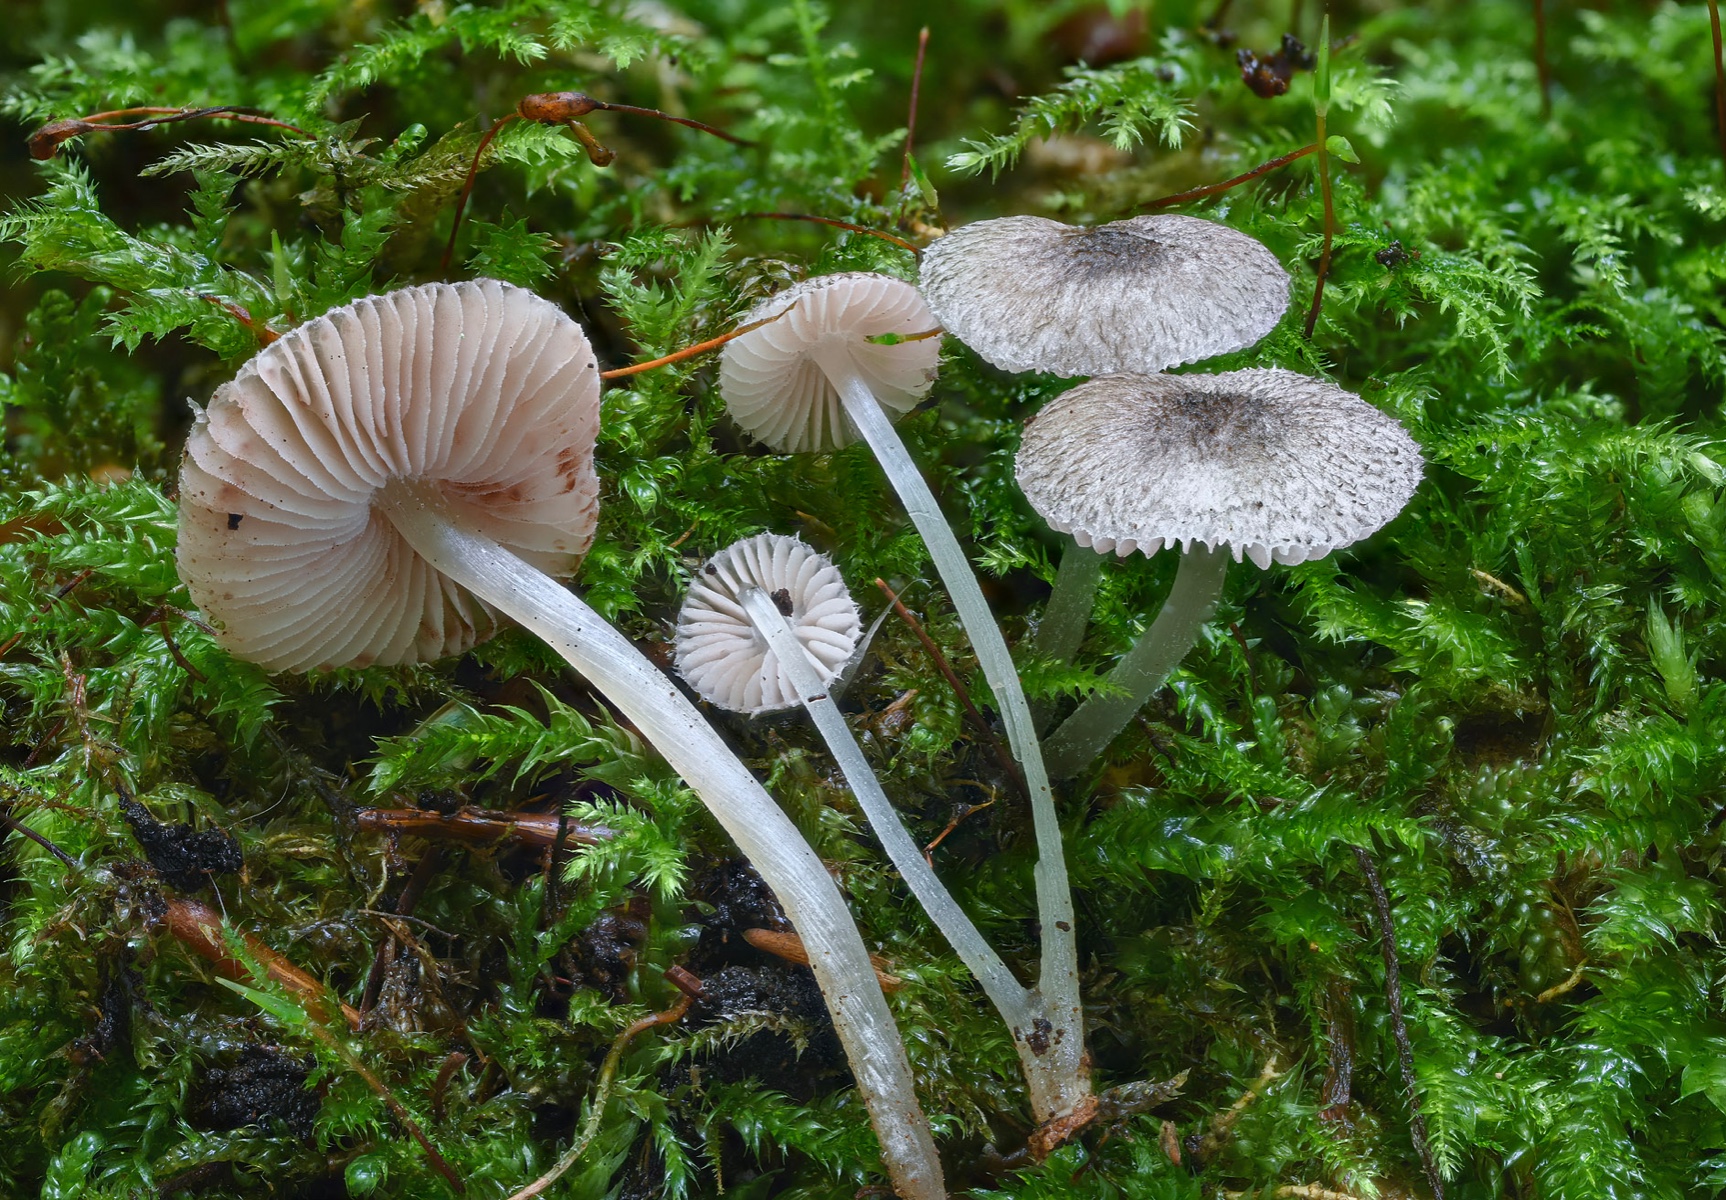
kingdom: Fungi
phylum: Basidiomycota
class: Agaricomycetes
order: Agaricales
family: Pluteaceae
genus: Pluteus
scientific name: Pluteus
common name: stivhåret skærmhat
